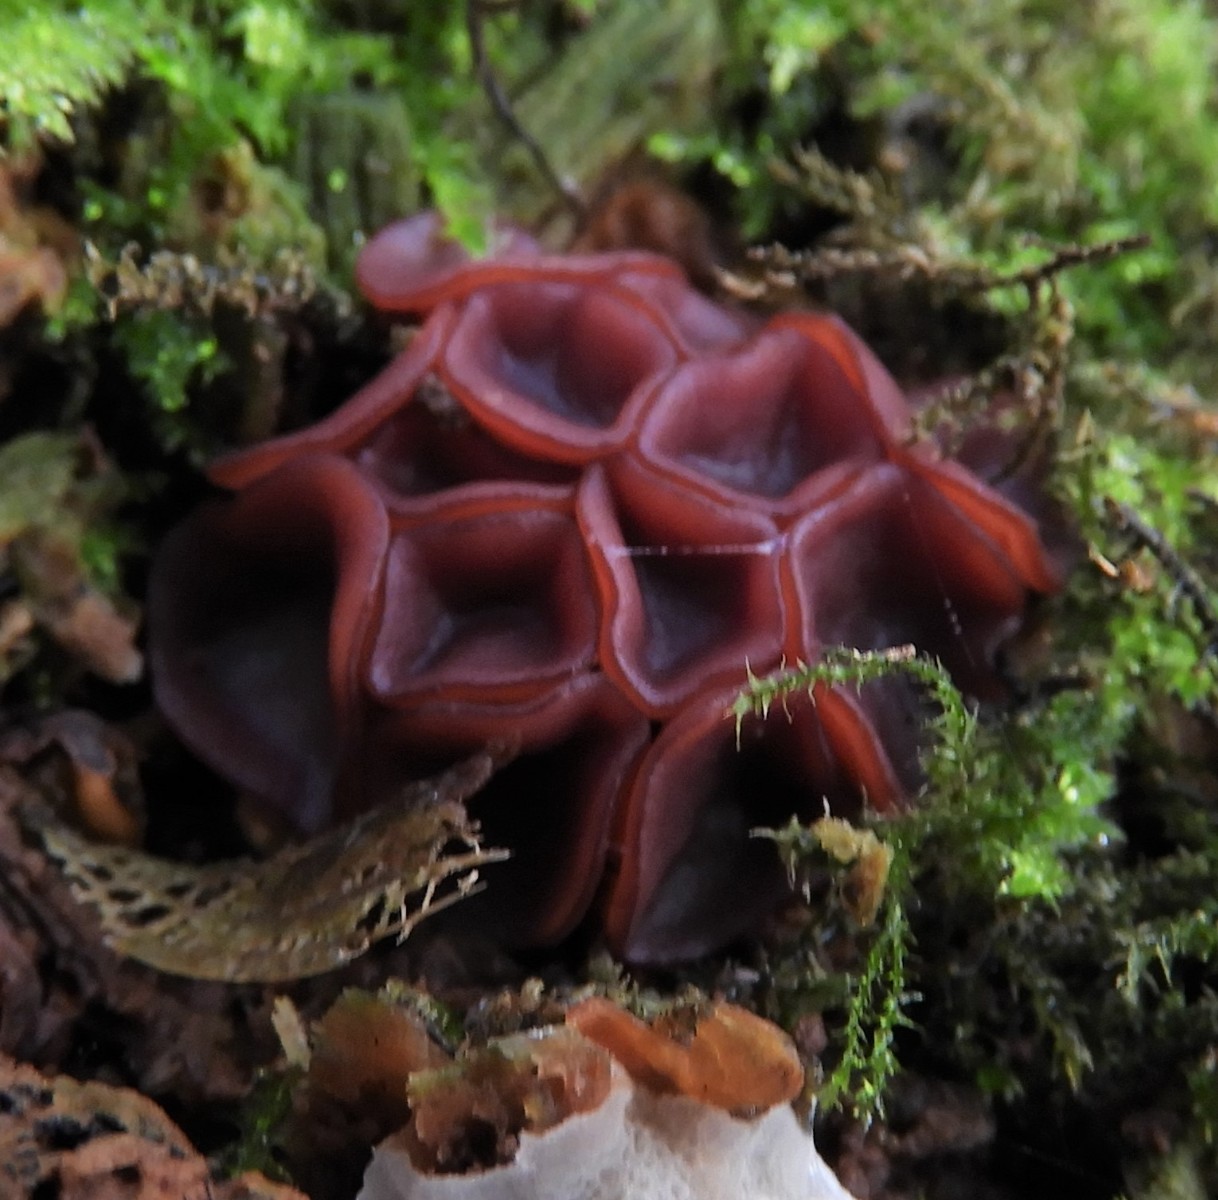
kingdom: Fungi
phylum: Ascomycota
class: Leotiomycetes
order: Helotiales
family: Gelatinodiscaceae
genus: Ascocoryne
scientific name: Ascocoryne cylichnium
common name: stor sejskive
